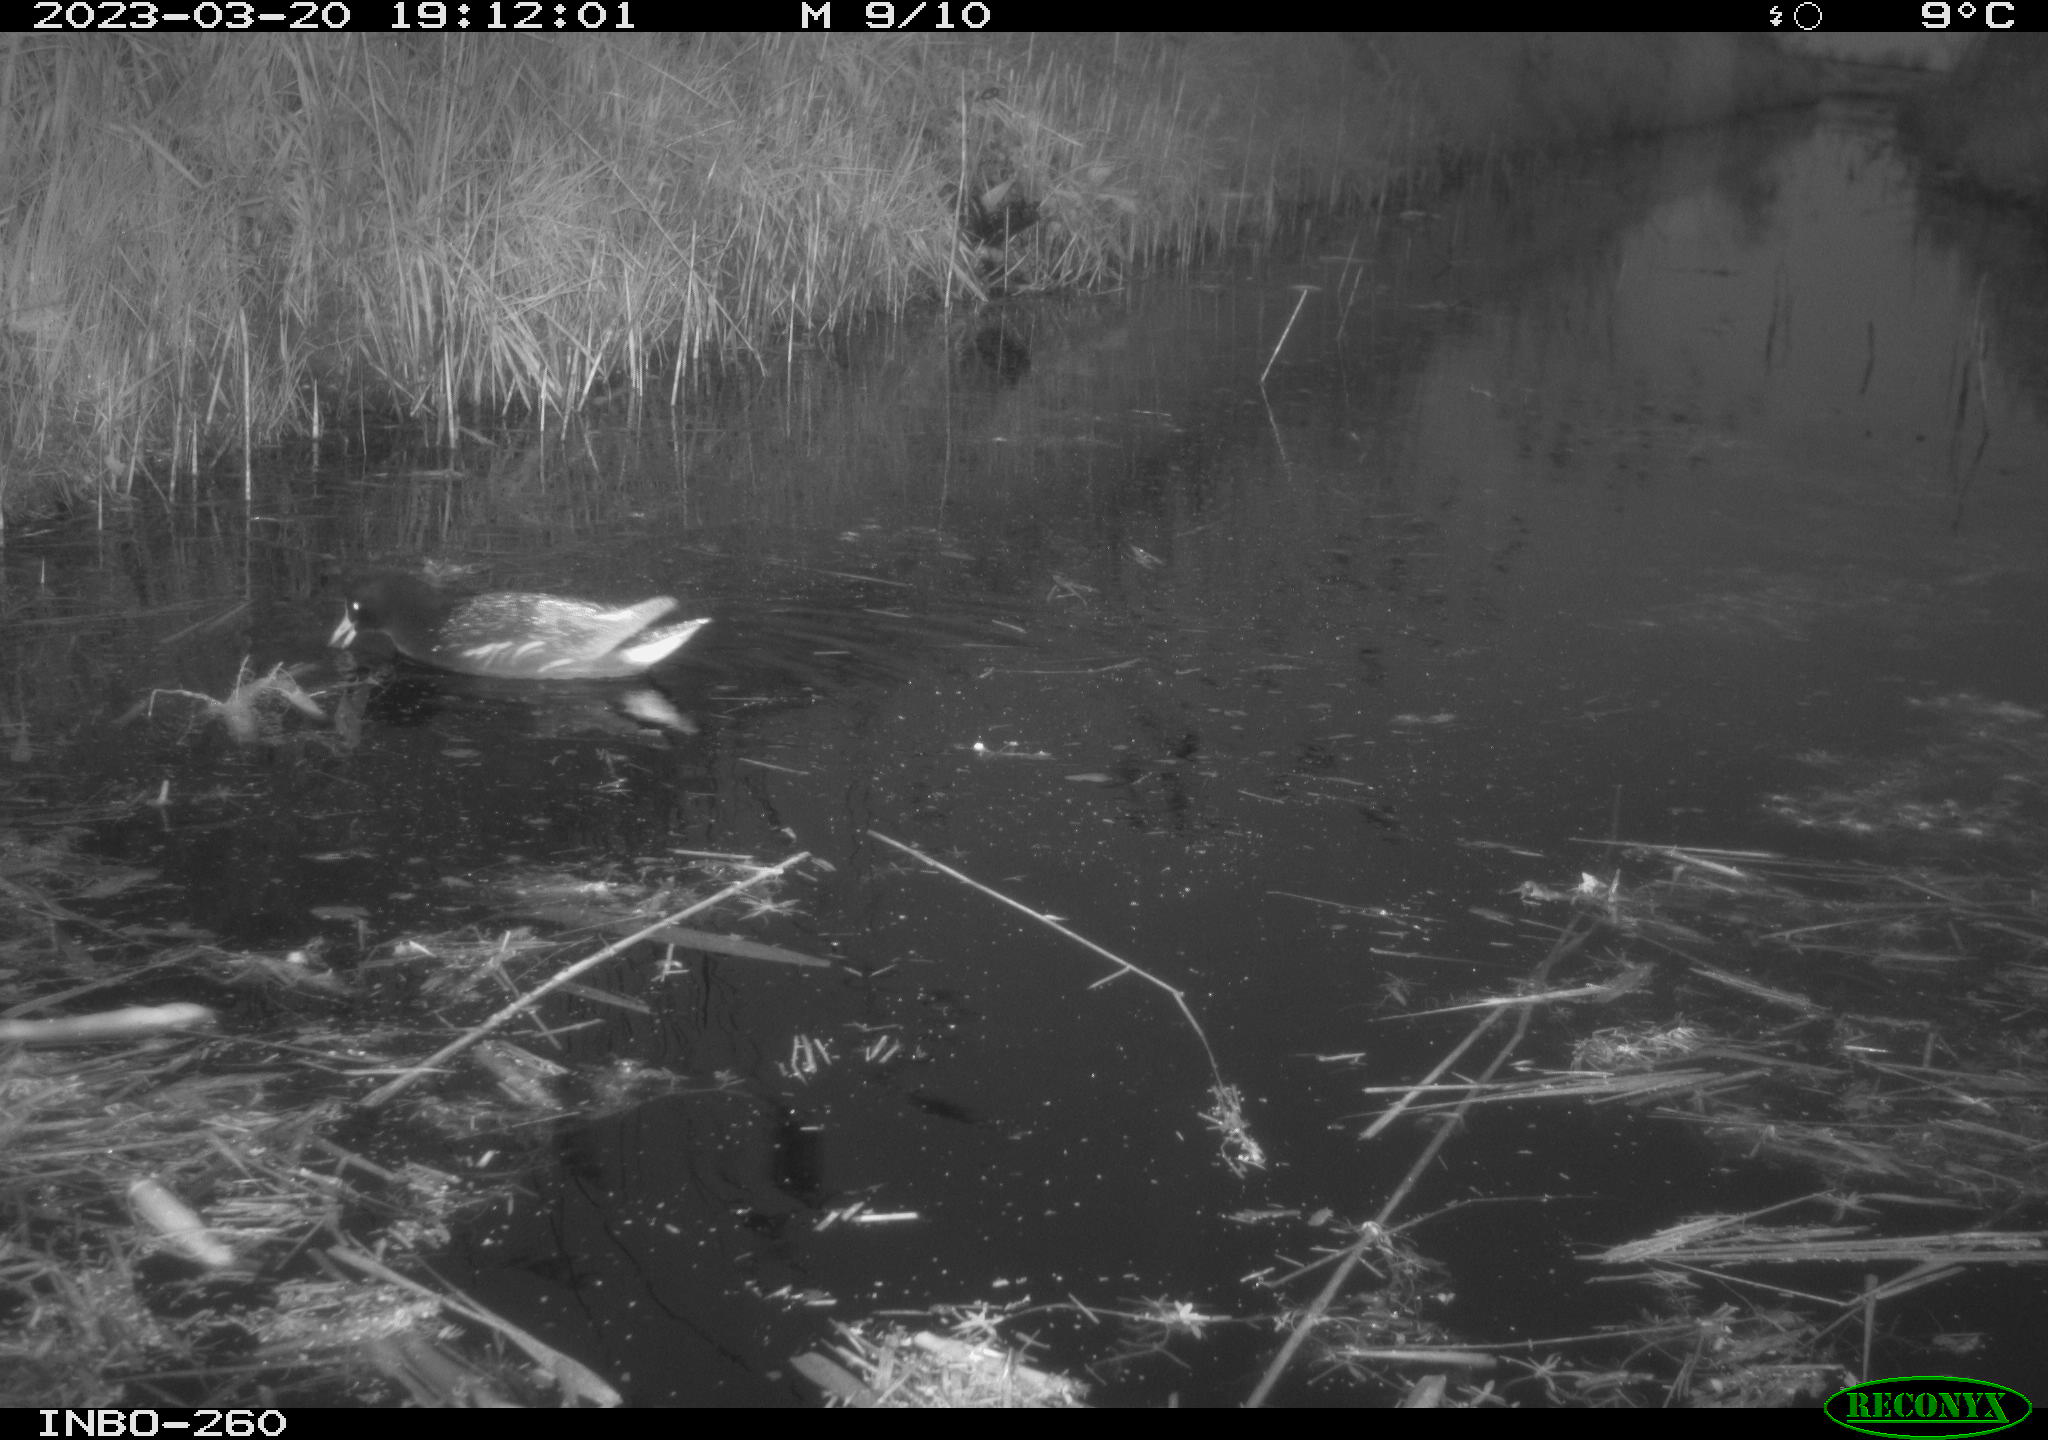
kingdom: Animalia
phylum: Chordata
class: Aves
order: Anseriformes
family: Anatidae
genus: Anas
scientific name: Anas
